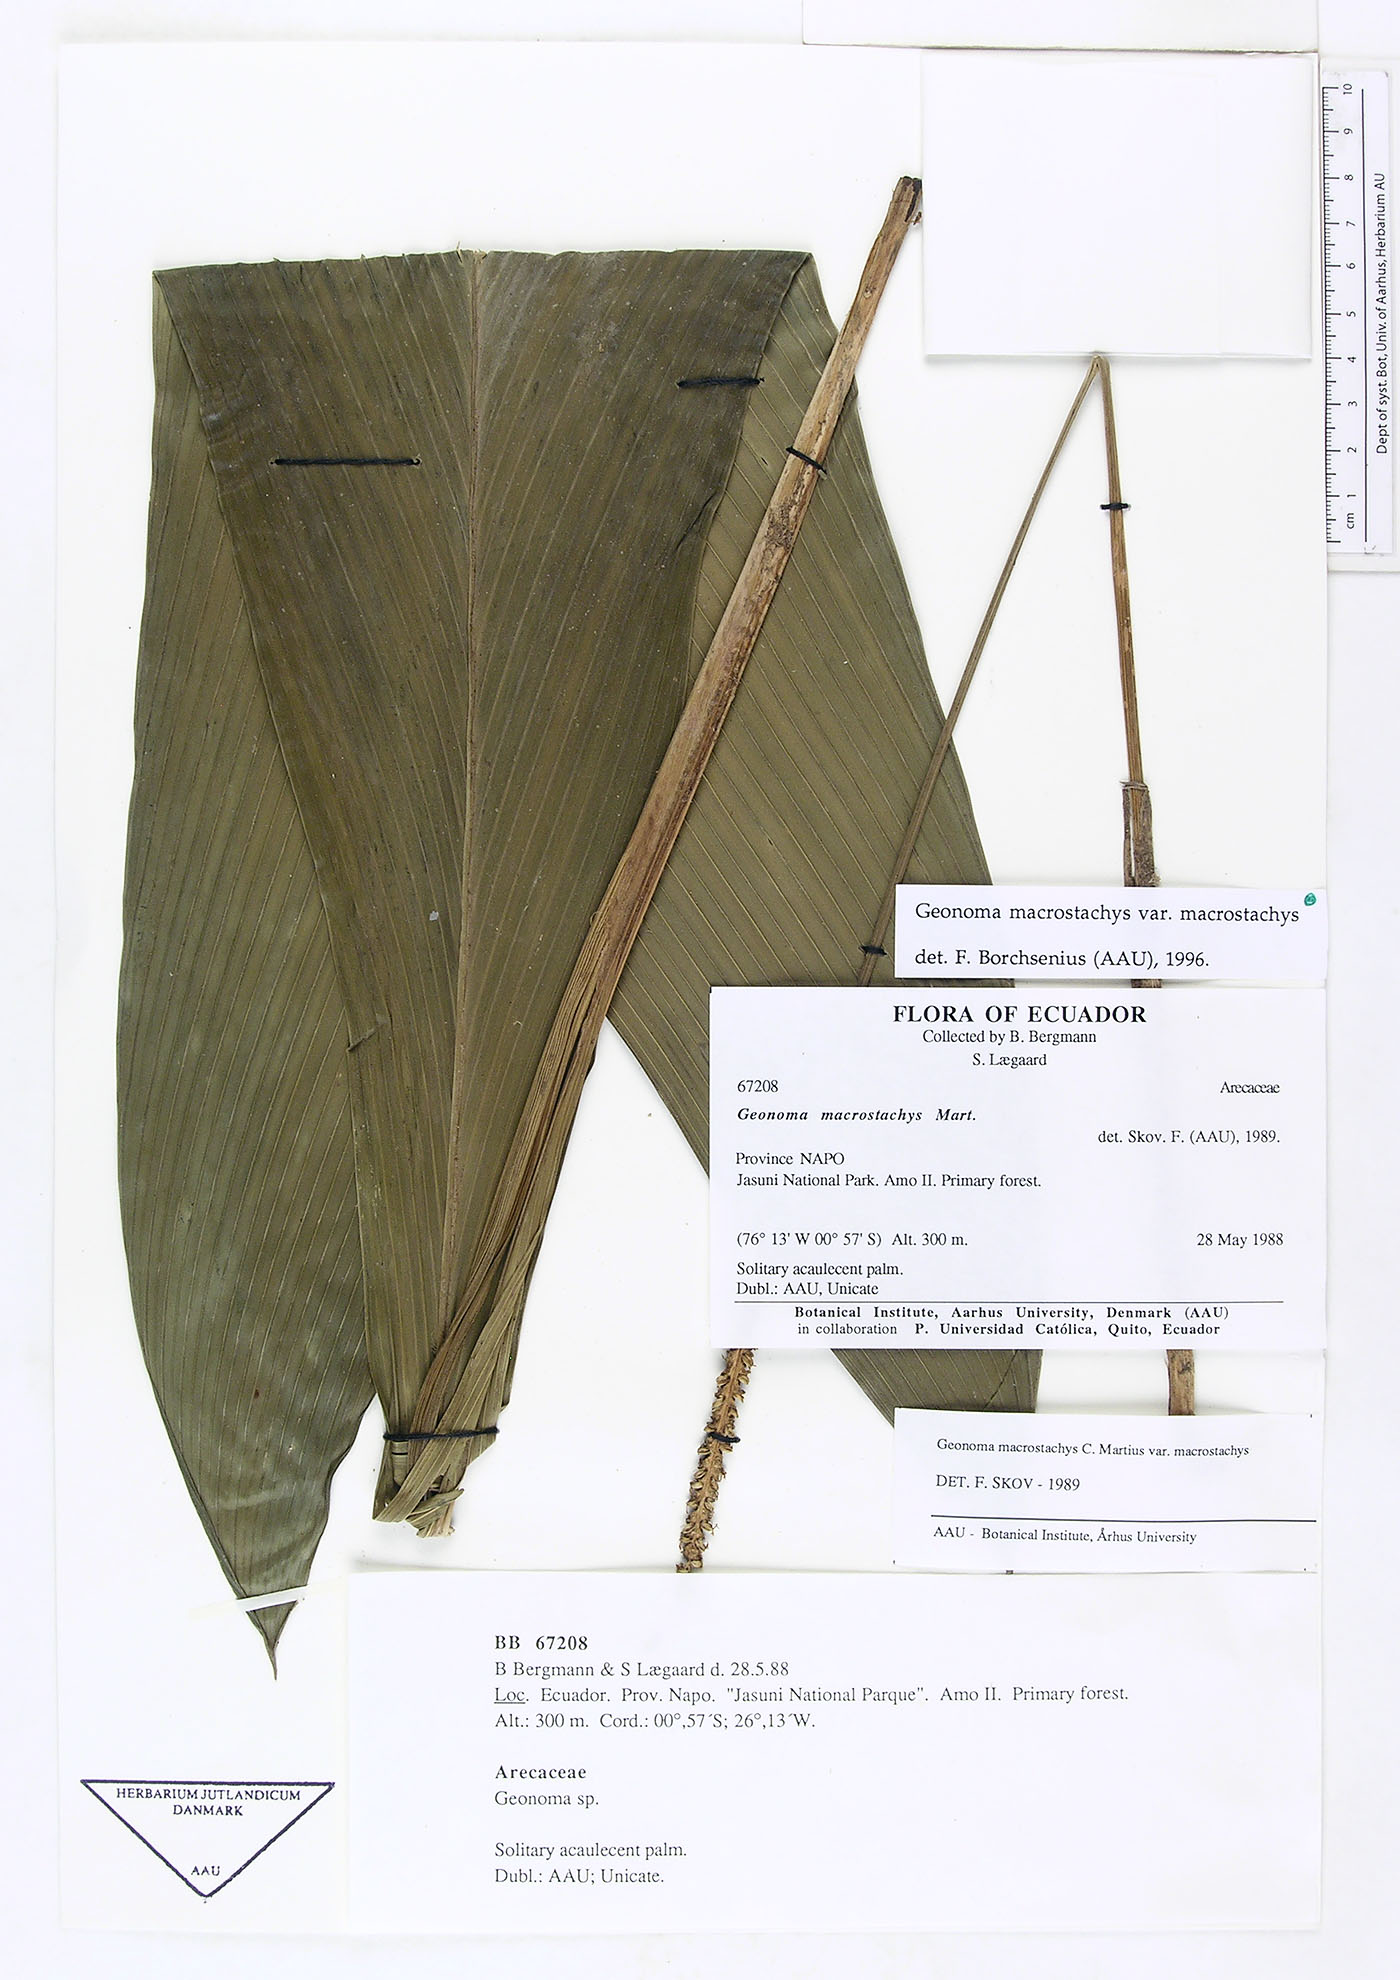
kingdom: Plantae
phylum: Tracheophyta
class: Liliopsida
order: Arecales
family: Arecaceae
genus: Geonoma
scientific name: Geonoma macrostachys
